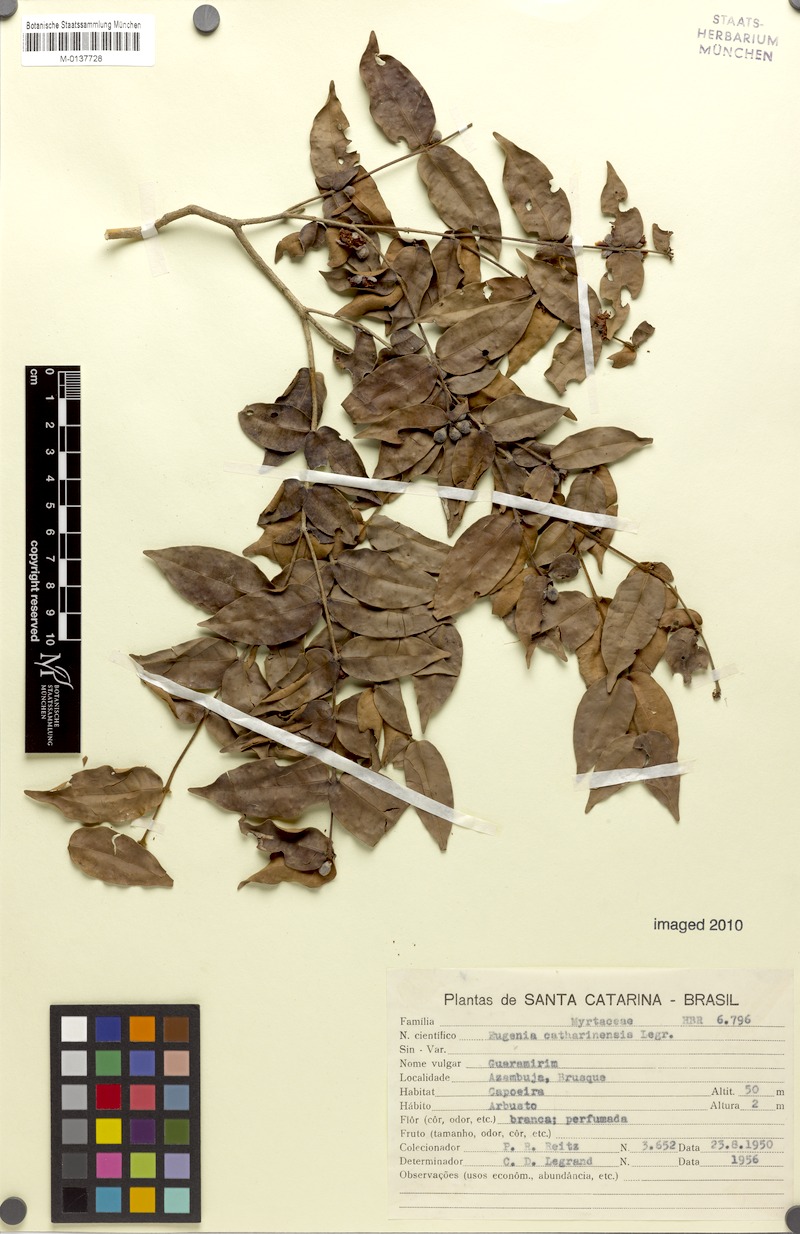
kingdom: Plantae
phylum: Tracheophyta
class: Magnoliopsida
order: Myrtales
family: Myrtaceae
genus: Eugenia
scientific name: Eugenia catharinensis
